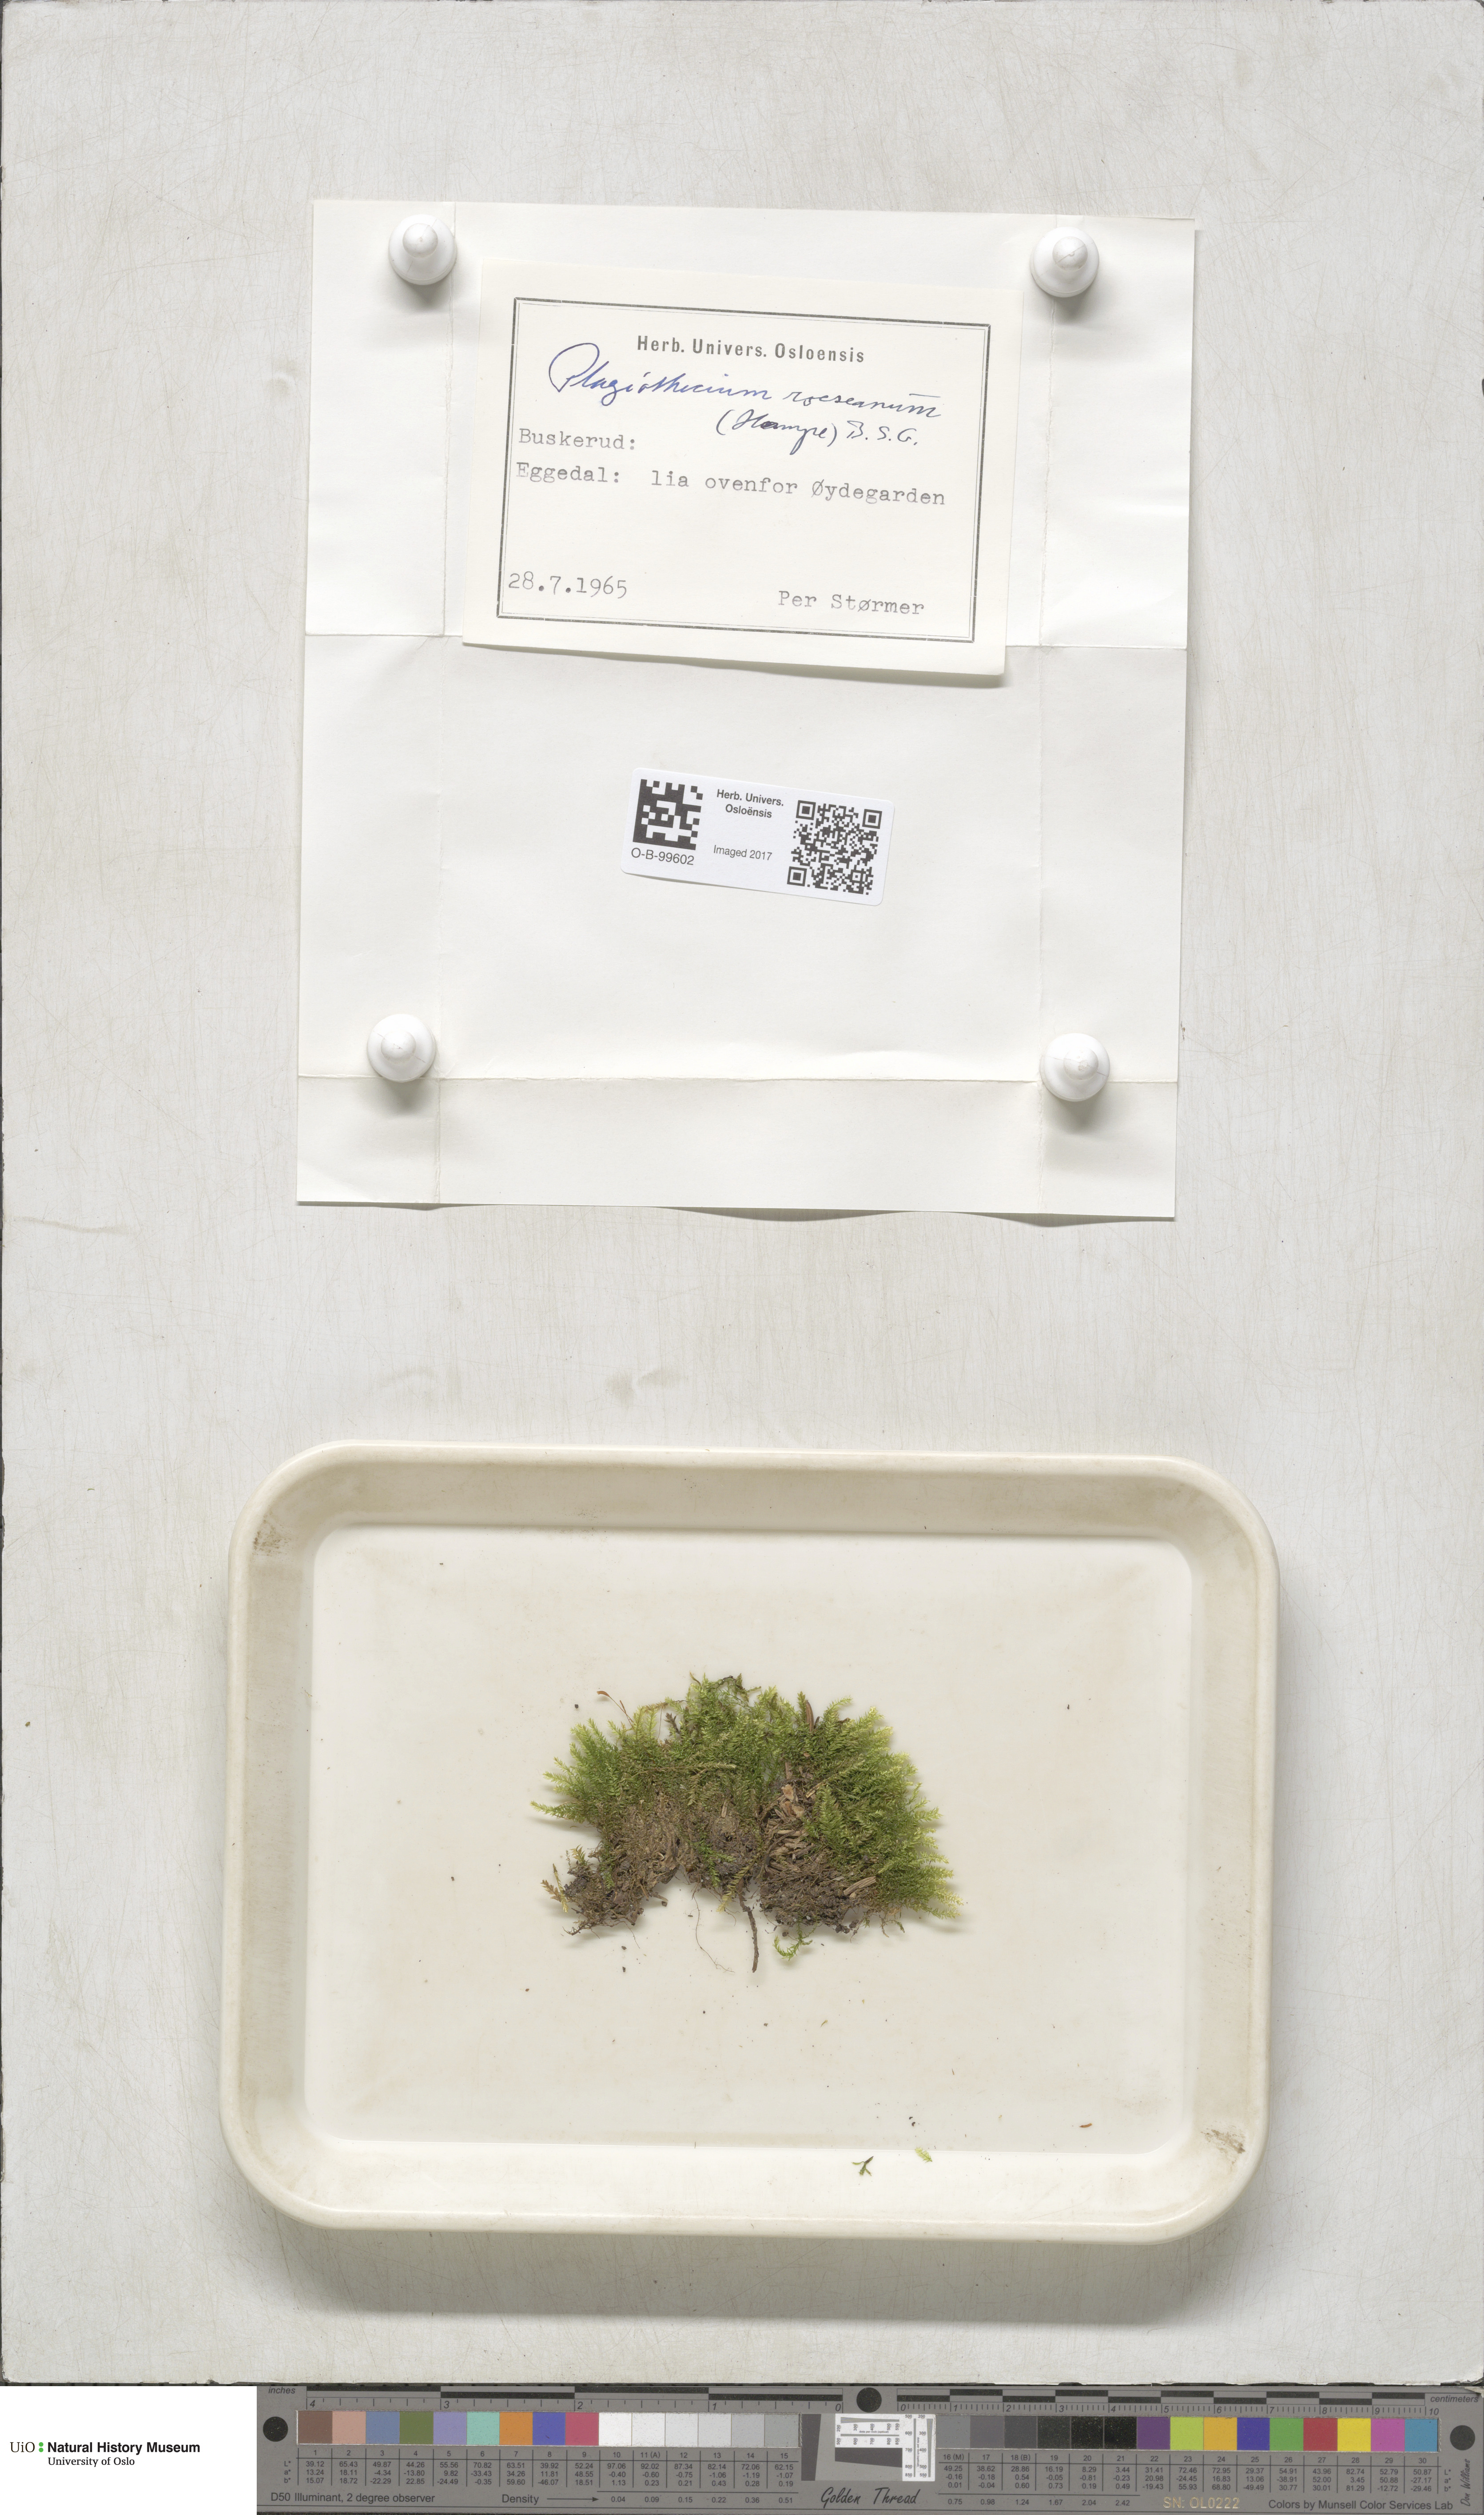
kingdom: Plantae
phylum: Bryophyta
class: Bryopsida
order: Bartramiales
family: Bartramiaceae
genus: Plagiopus
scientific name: Plagiopus oederianus
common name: Oeder's apple moss
